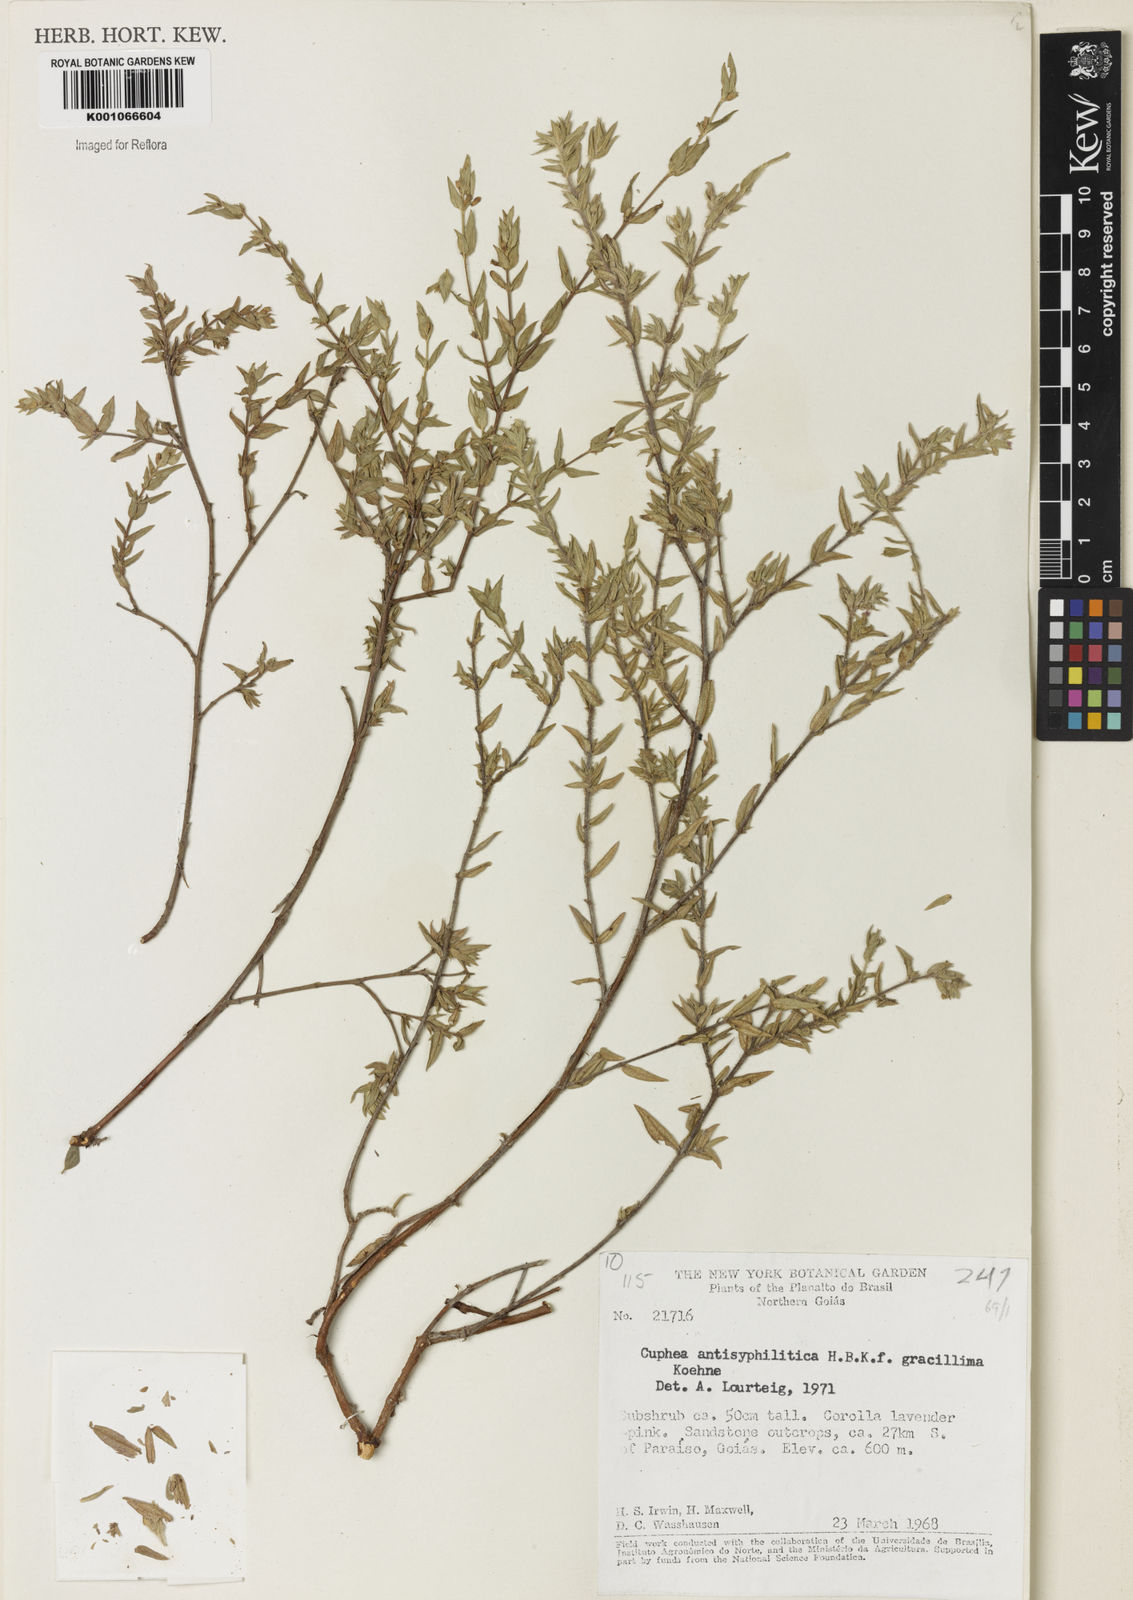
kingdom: Plantae
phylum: Tracheophyta
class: Magnoliopsida
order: Myrtales
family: Lythraceae
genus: Cuphea
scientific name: Cuphea antisyphilitica
